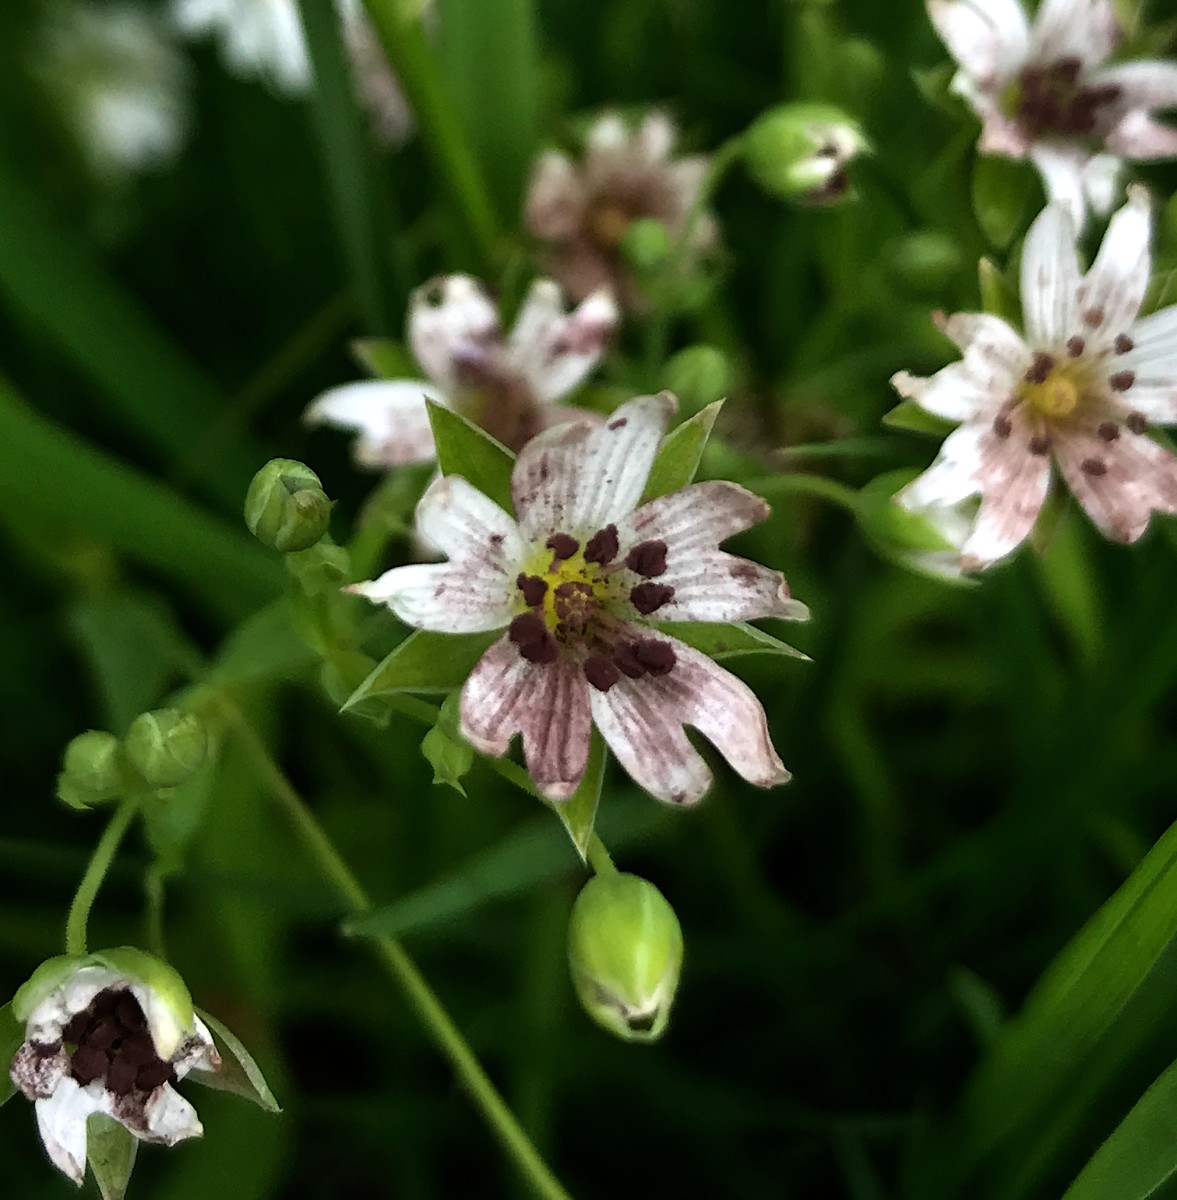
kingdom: Fungi
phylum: Basidiomycota
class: Microbotryomycetes
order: Microbotryales
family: Microbotryaceae
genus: Microbotryum
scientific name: Microbotryum stellariae
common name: fladstjerne-støvbladrust
